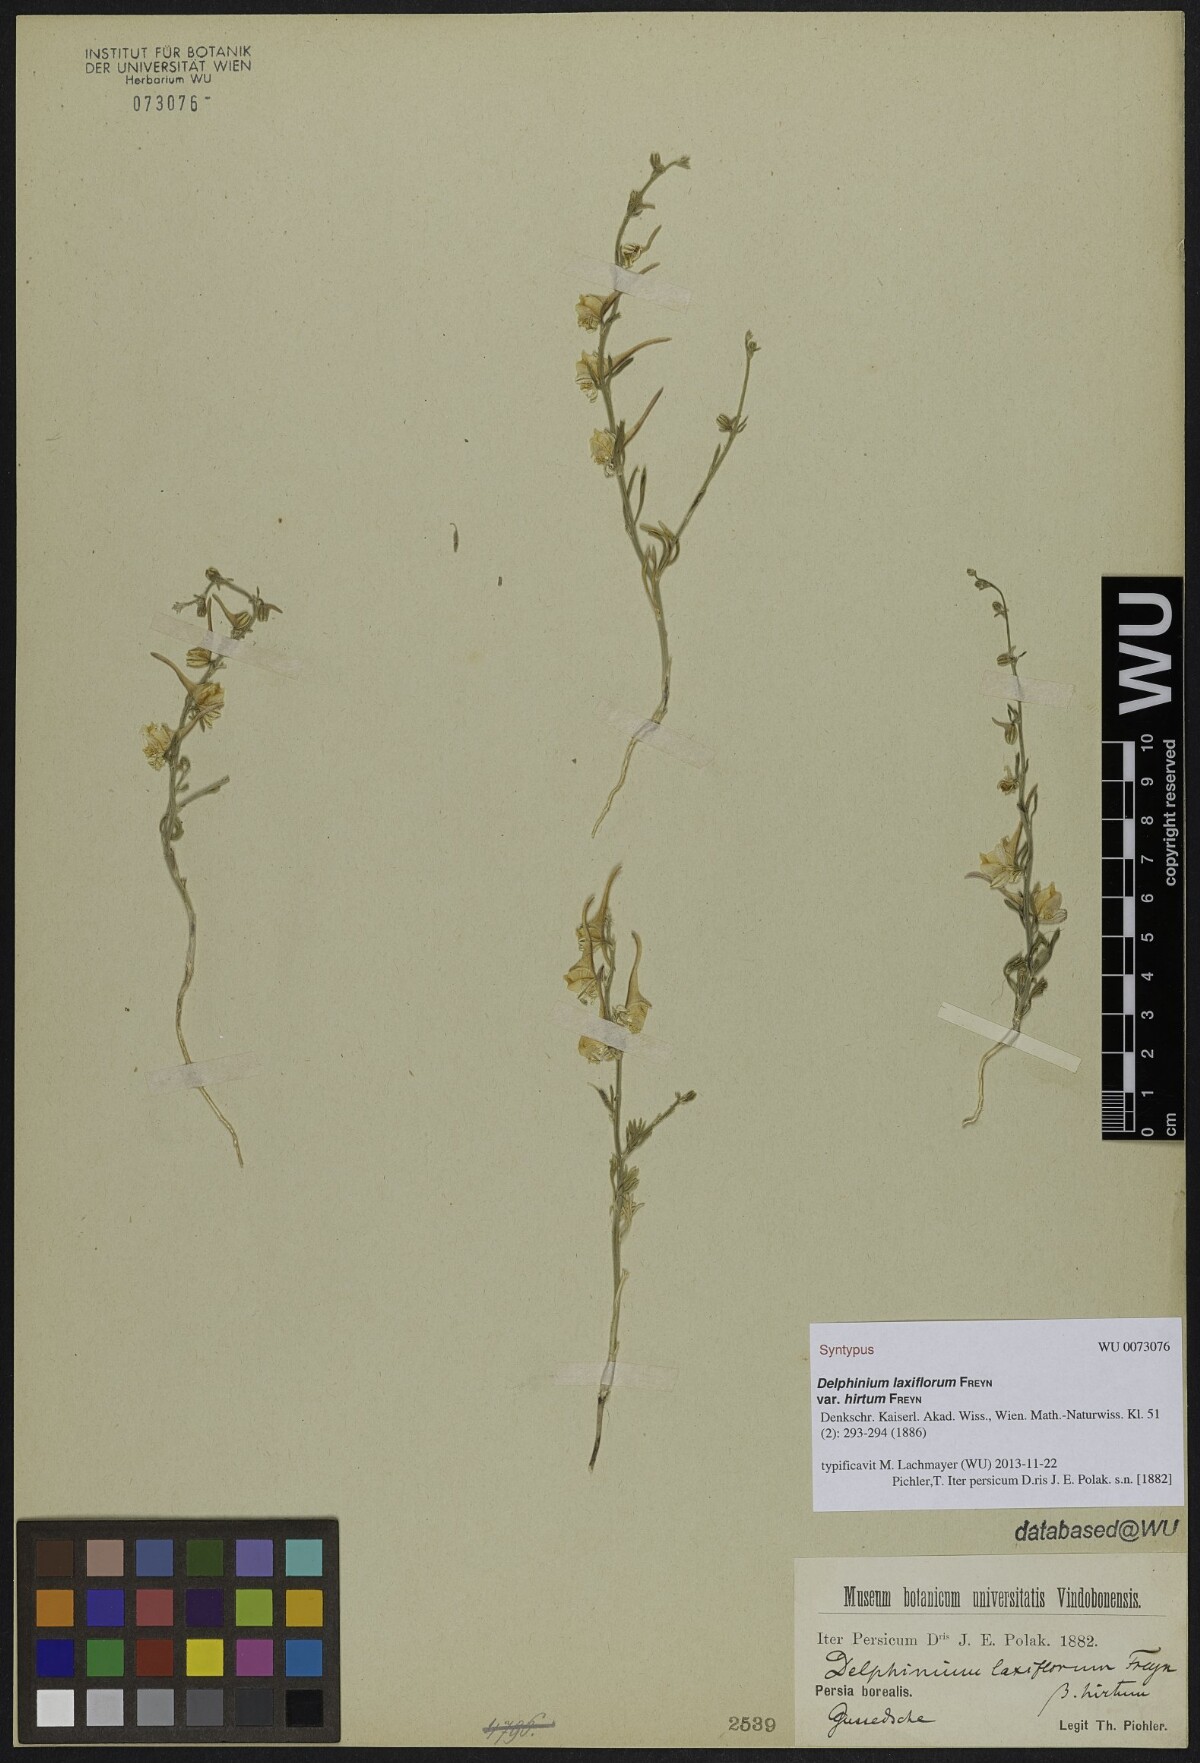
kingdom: Plantae
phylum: Tracheophyta
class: Magnoliopsida
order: Ranunculales
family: Ranunculaceae
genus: Delphinium
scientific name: Delphinium laxiflorum
